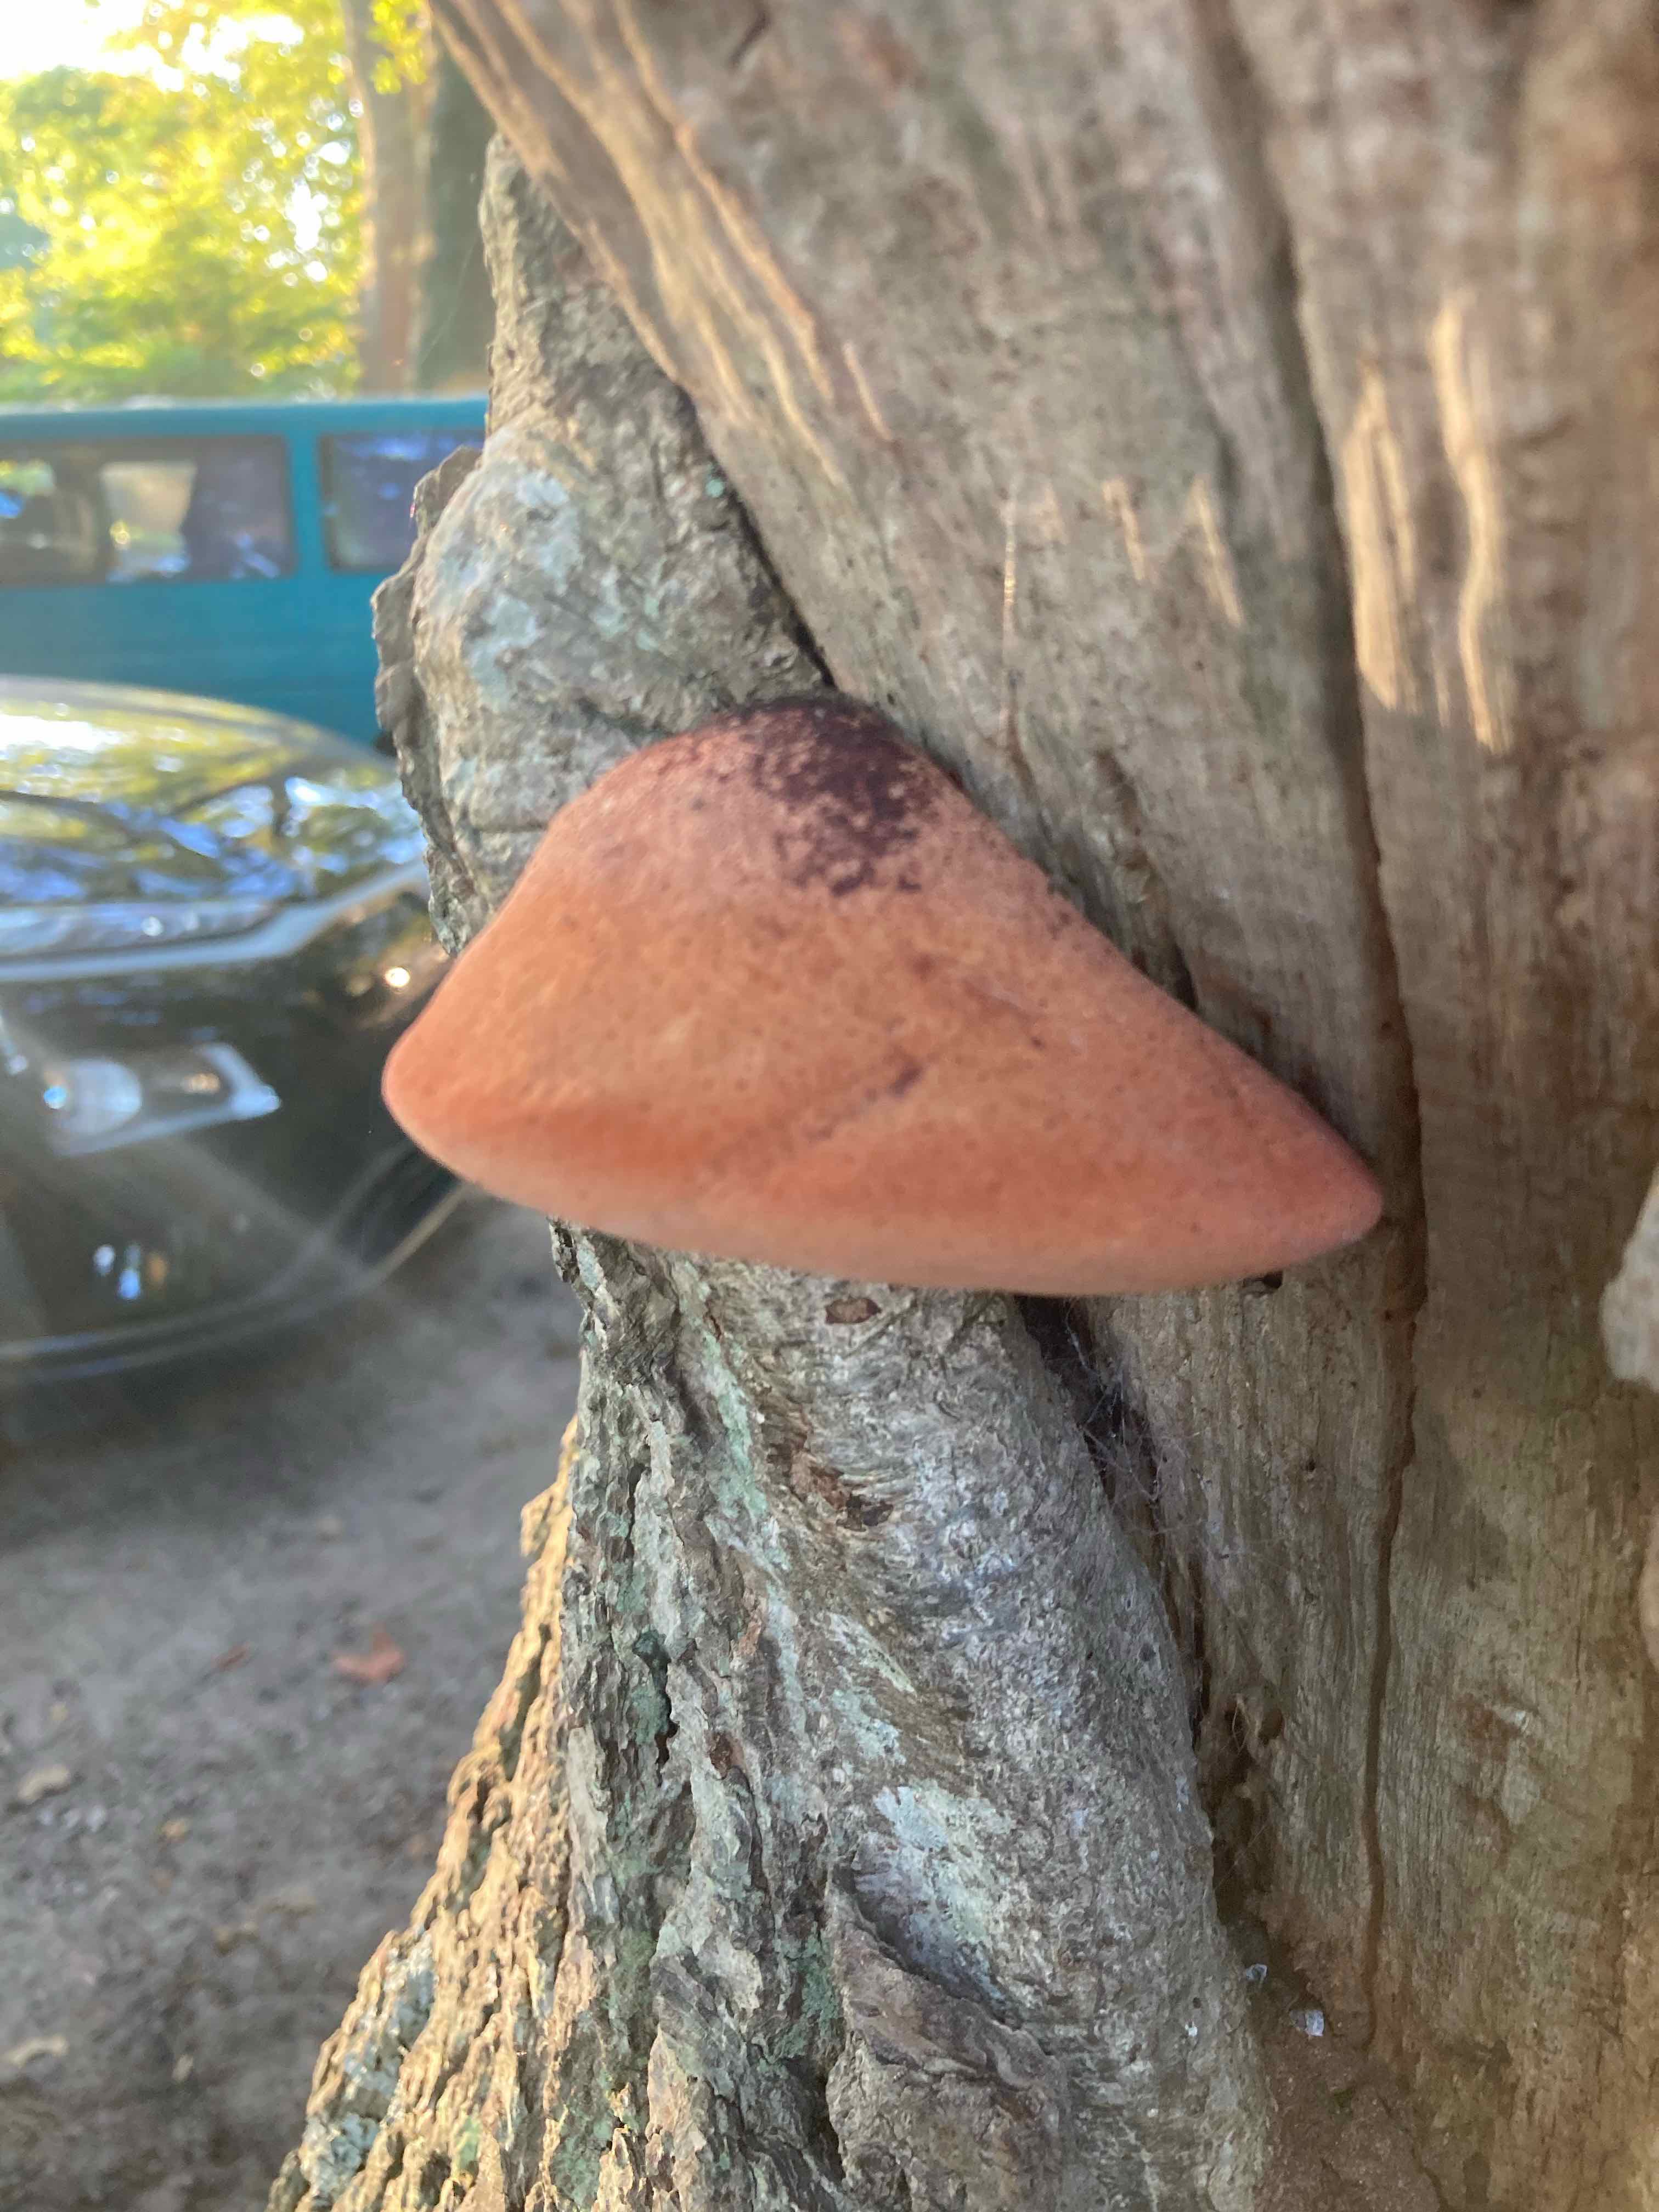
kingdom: Fungi
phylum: Basidiomycota
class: Agaricomycetes
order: Agaricales
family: Fistulinaceae
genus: Fistulina
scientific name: Fistulina hepatica
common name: oksetunge
